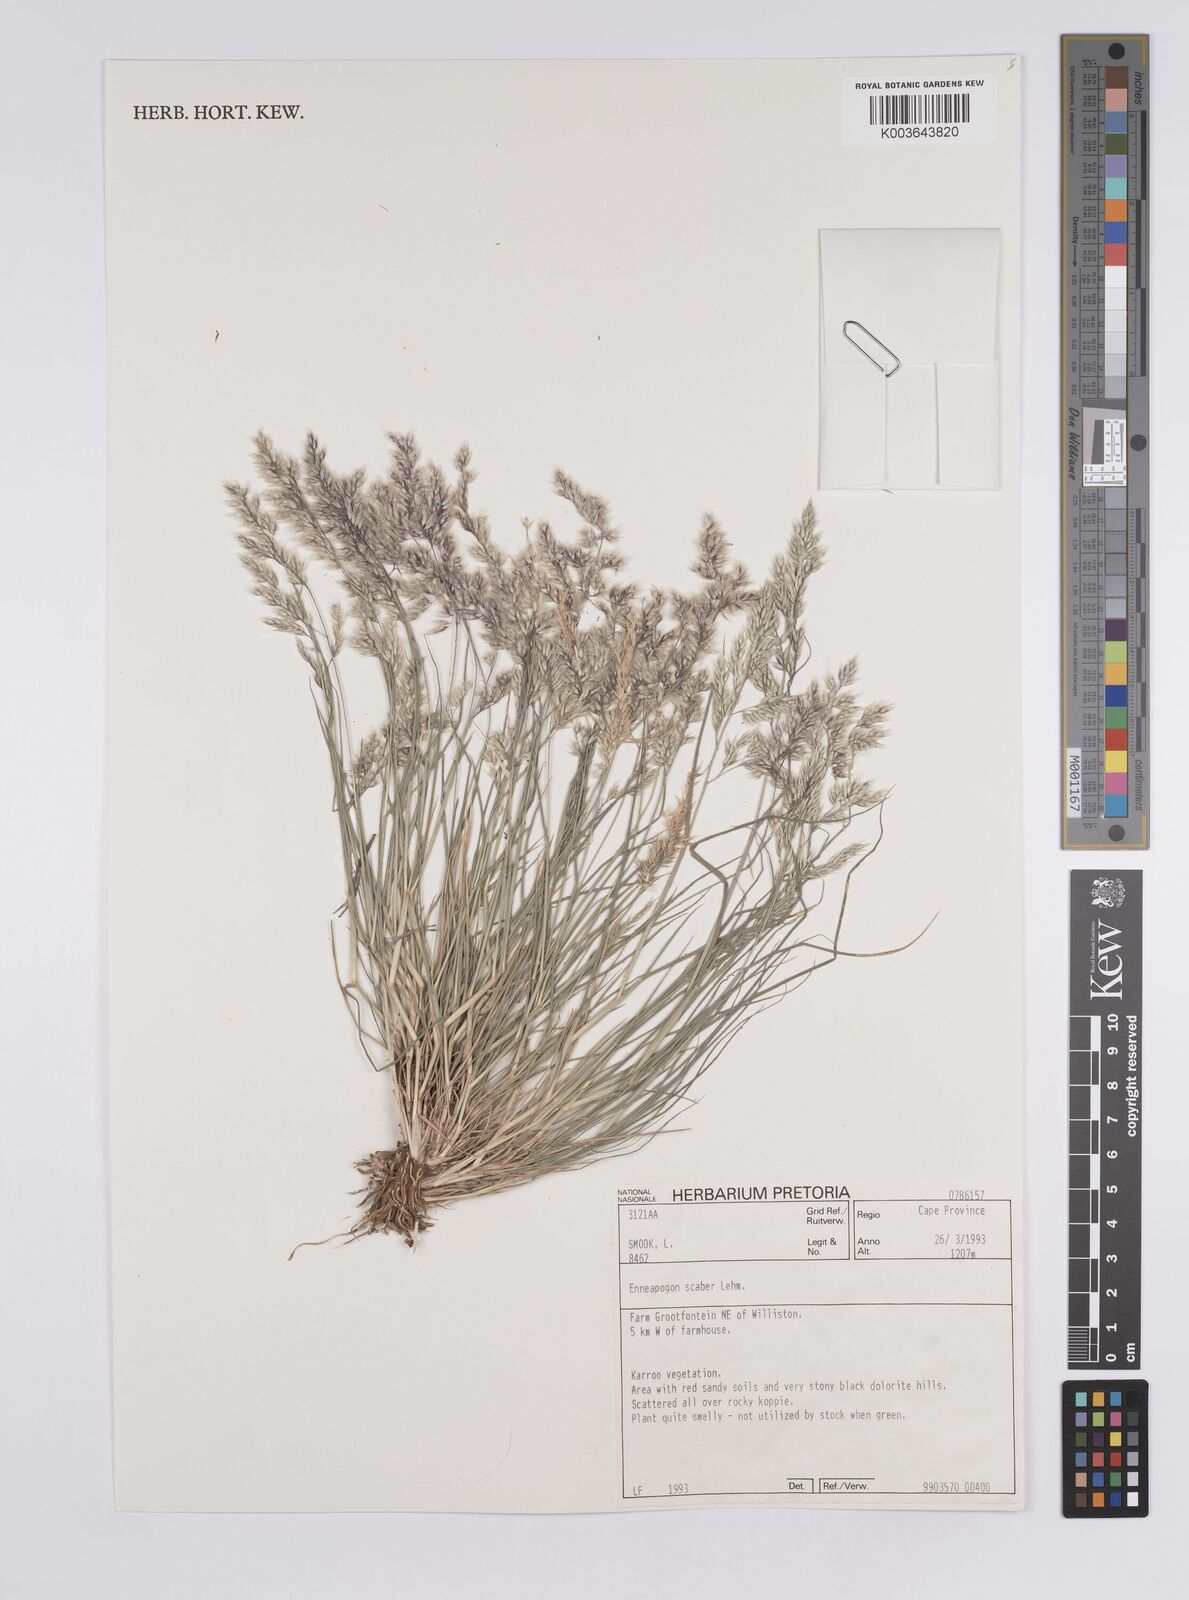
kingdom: Plantae
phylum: Tracheophyta
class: Liliopsida
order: Poales
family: Poaceae
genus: Enneapogon
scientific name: Enneapogon scaber
